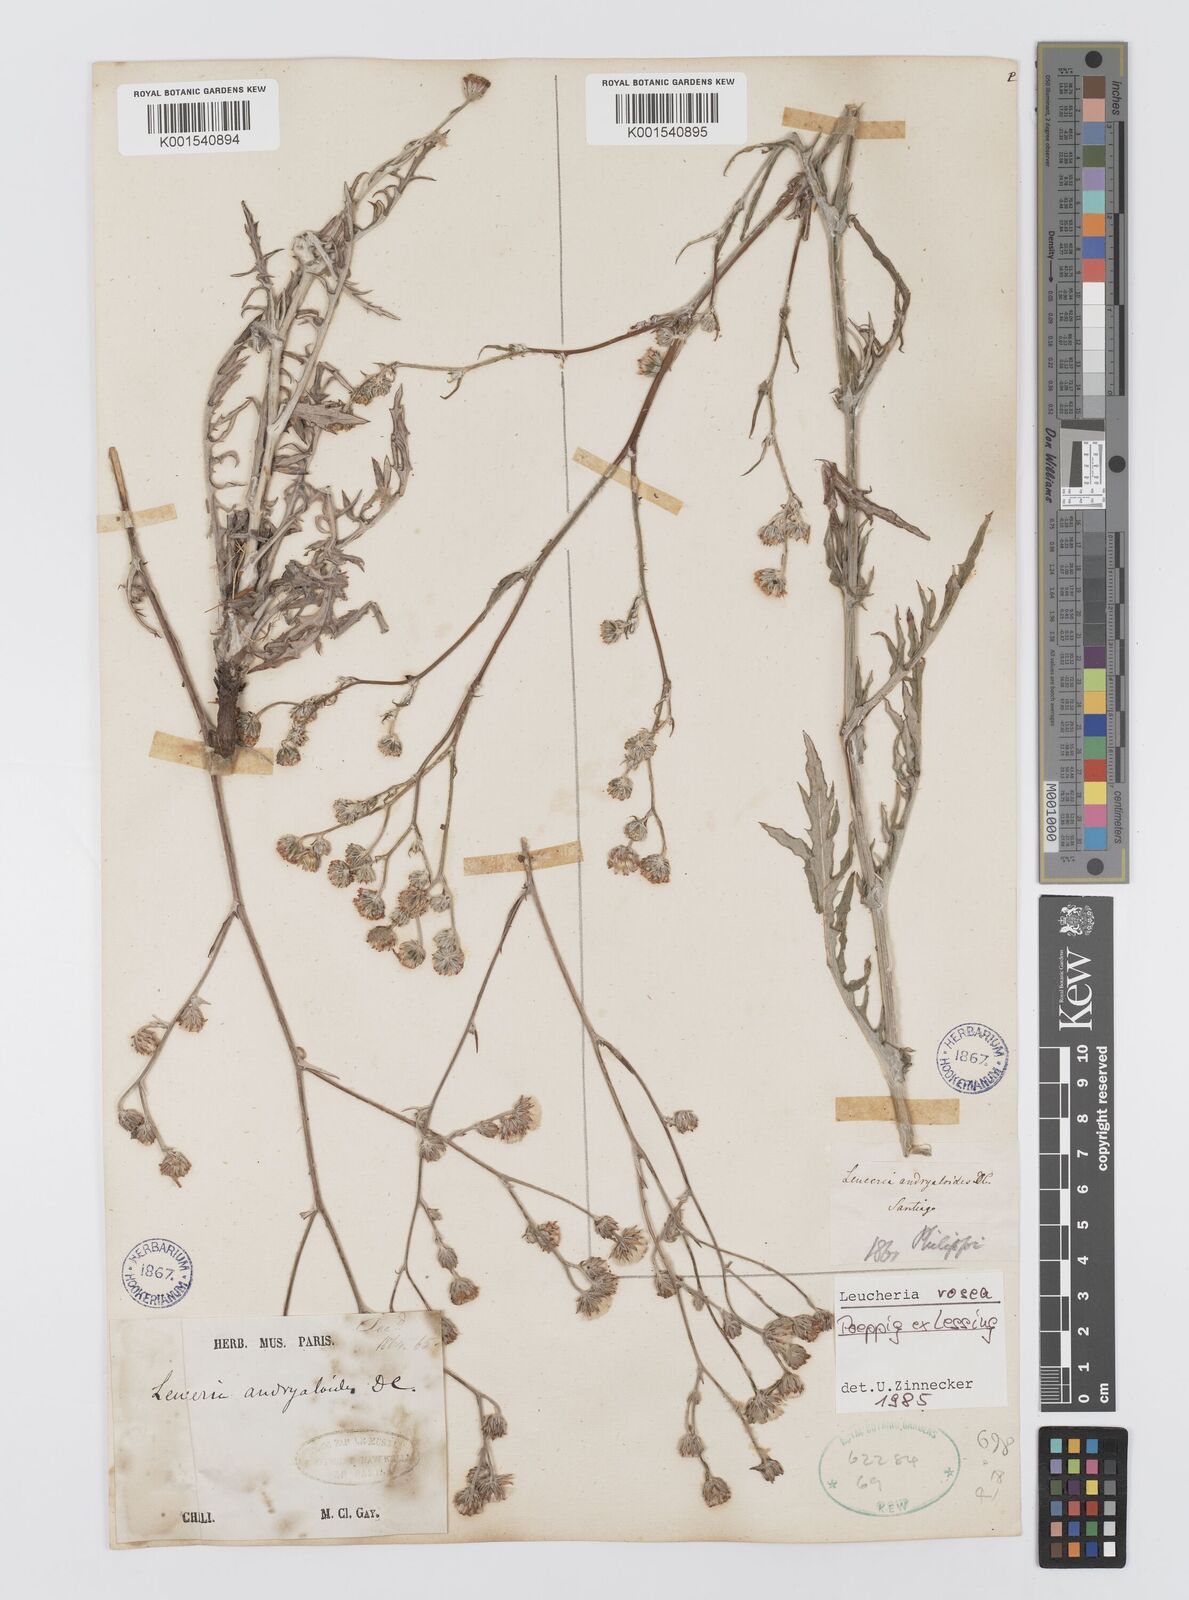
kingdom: Plantae
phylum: Tracheophyta
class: Magnoliopsida
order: Asterales
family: Asteraceae
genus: Leucheria
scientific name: Leucheria rosea
